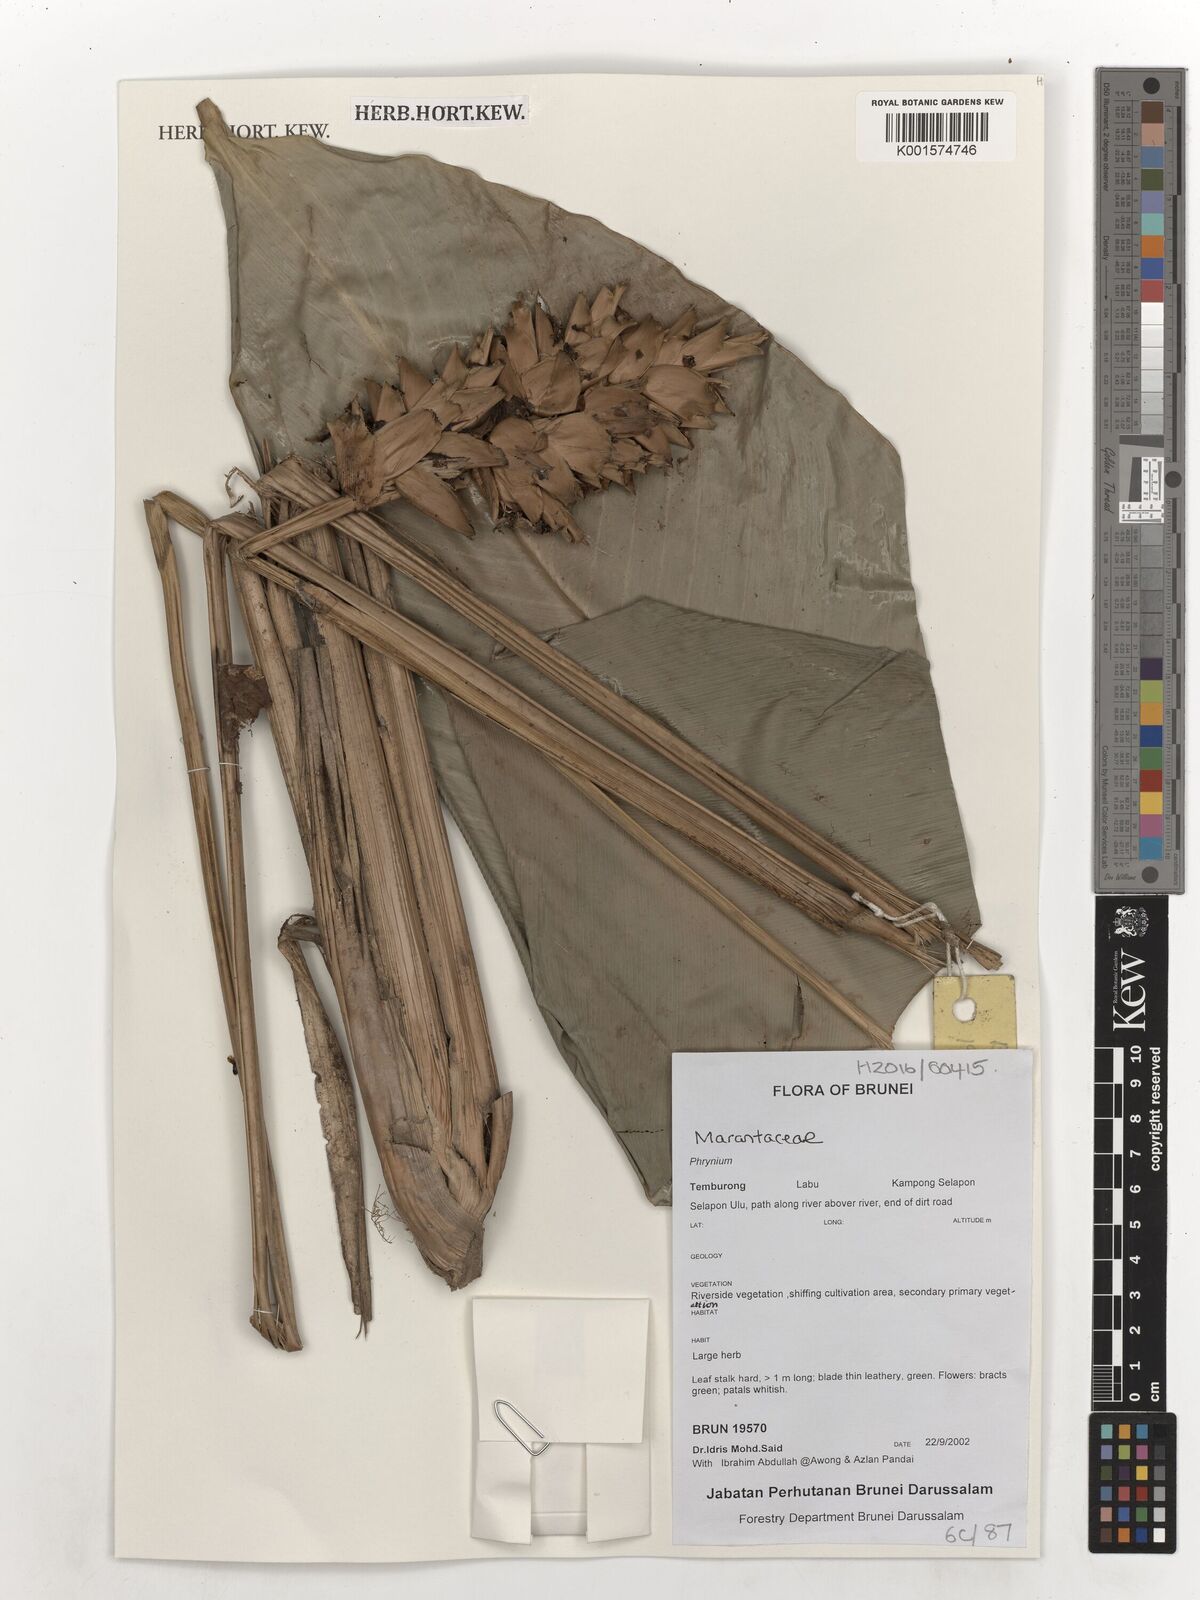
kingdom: Plantae
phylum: Tracheophyta
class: Liliopsida
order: Zingiberales
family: Marantaceae
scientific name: Marantaceae
